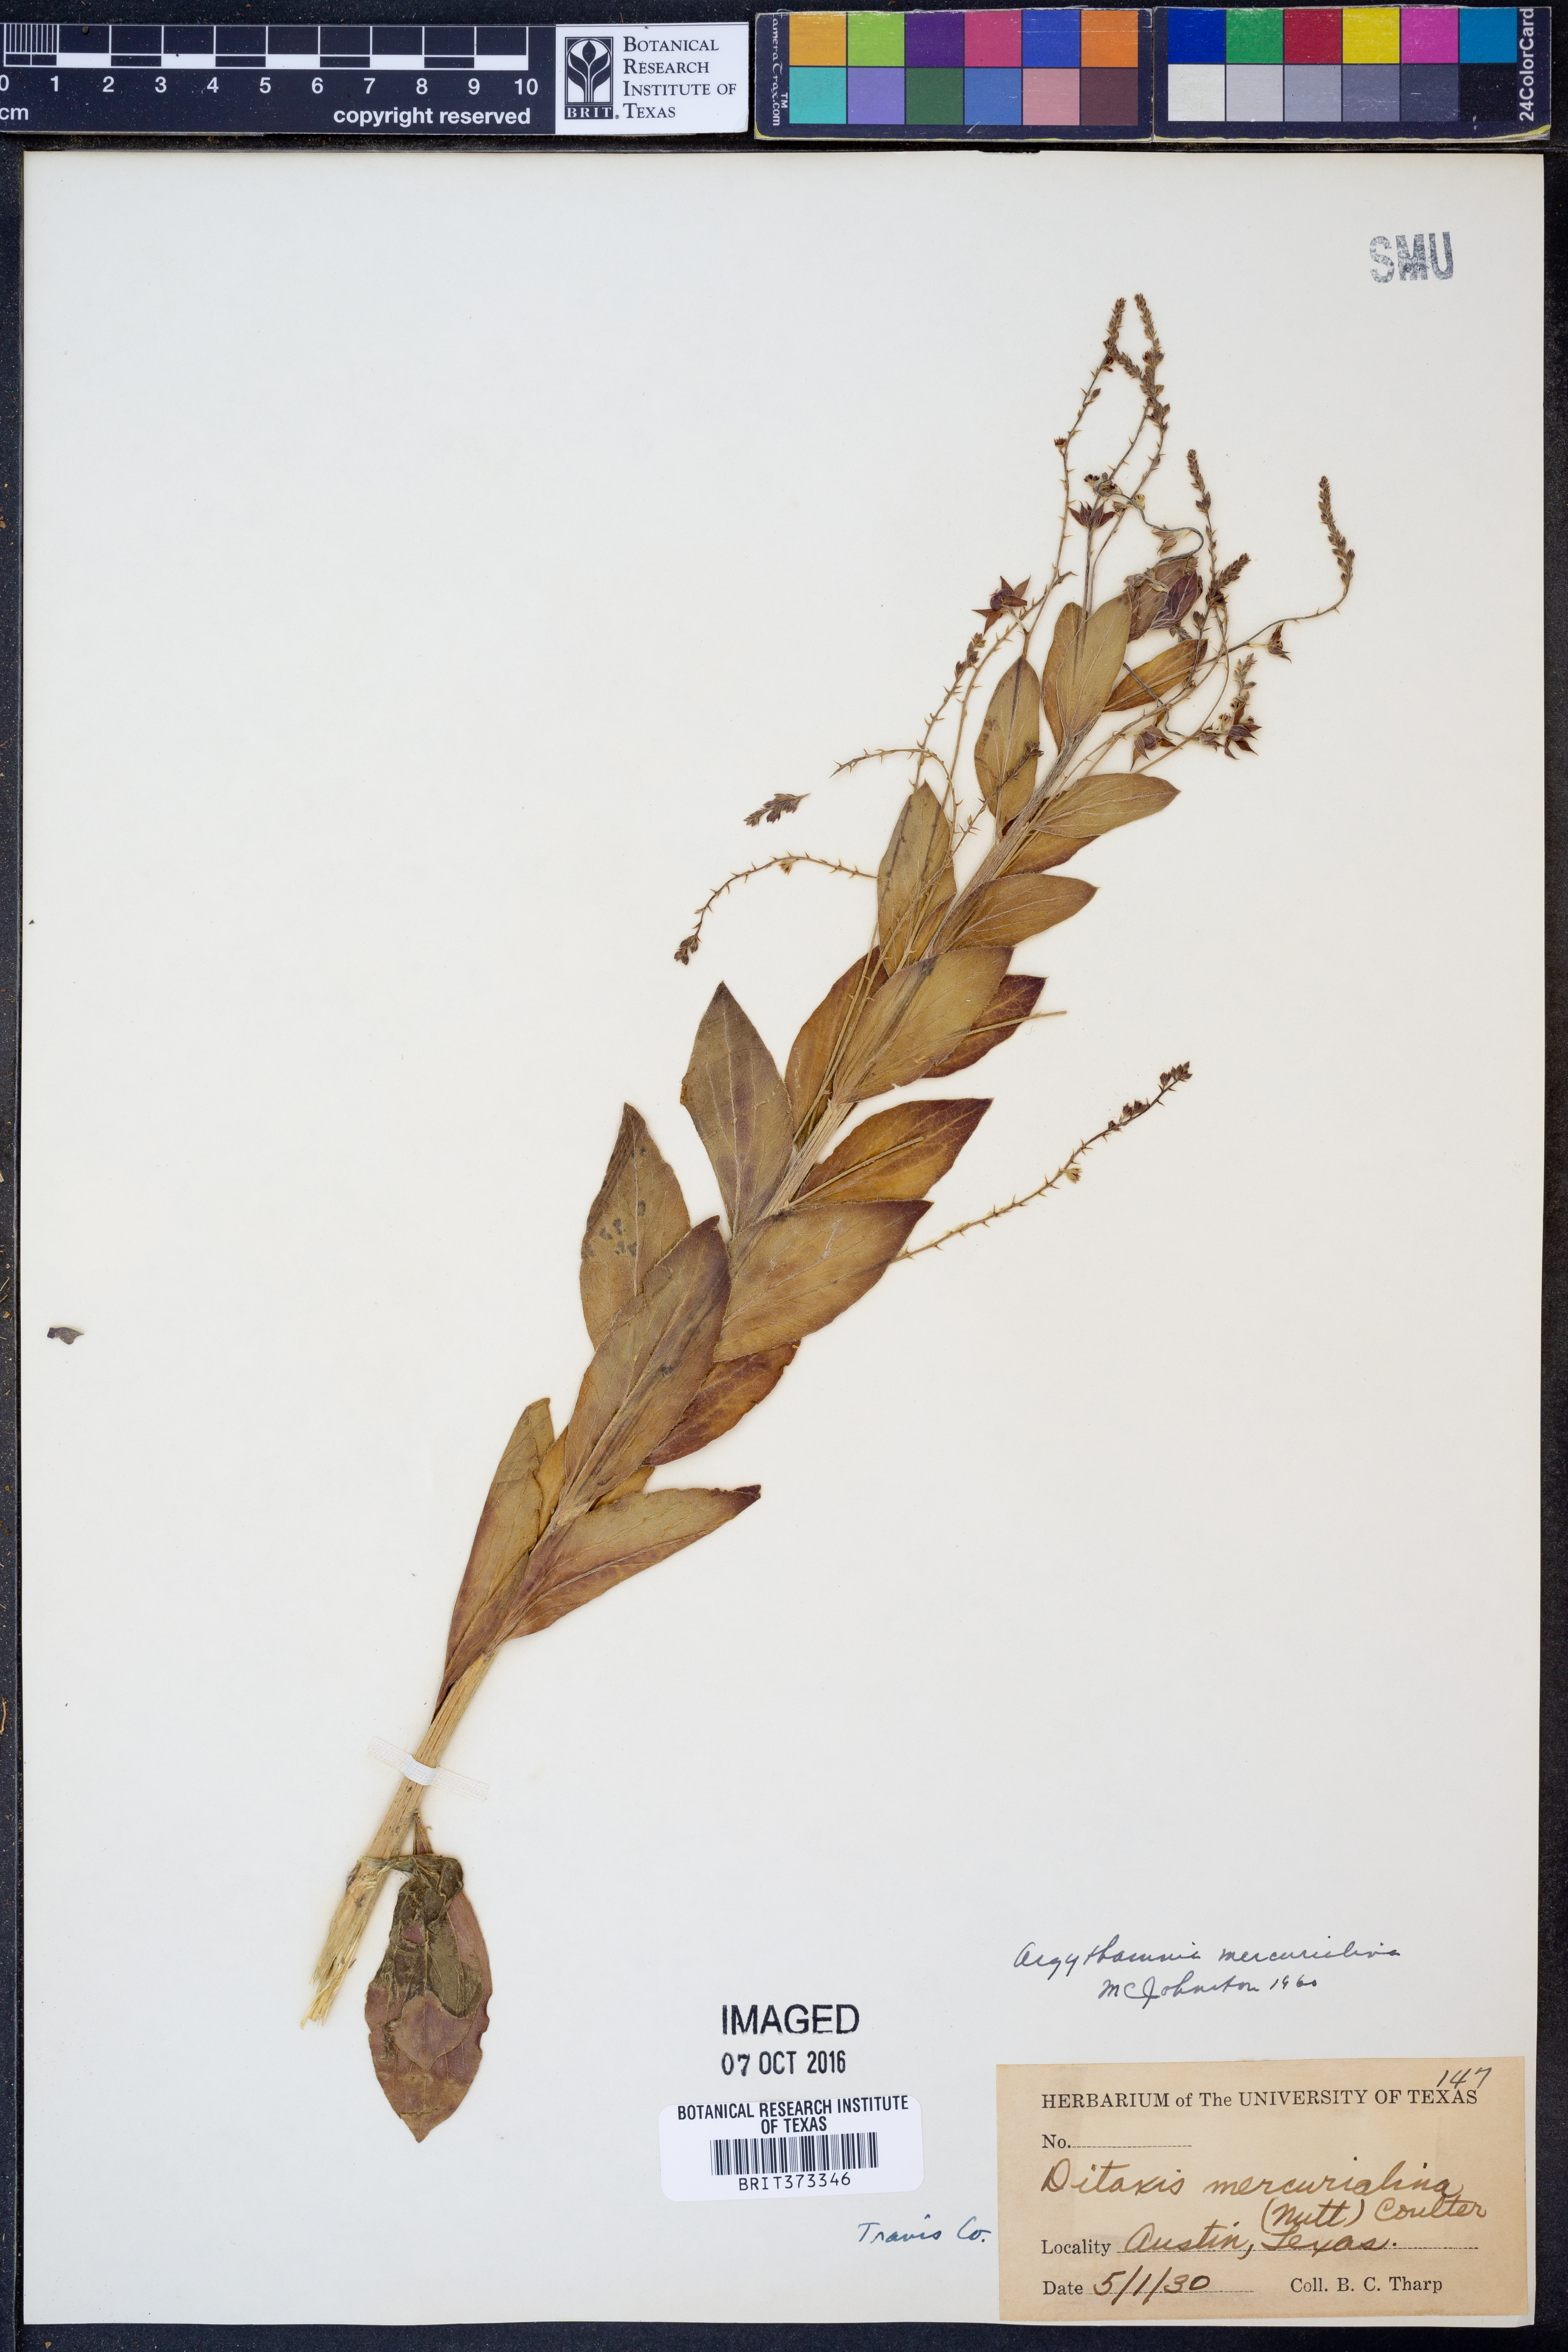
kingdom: Plantae
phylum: Tracheophyta
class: Magnoliopsida
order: Malpighiales
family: Euphorbiaceae
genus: Ditaxis
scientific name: Ditaxis mercurialina
